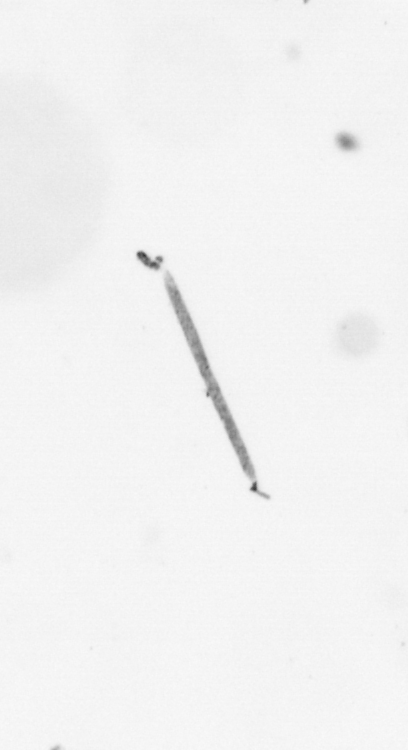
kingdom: Chromista
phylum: Ochrophyta
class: Bacillariophyceae
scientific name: Bacillariophyceae
